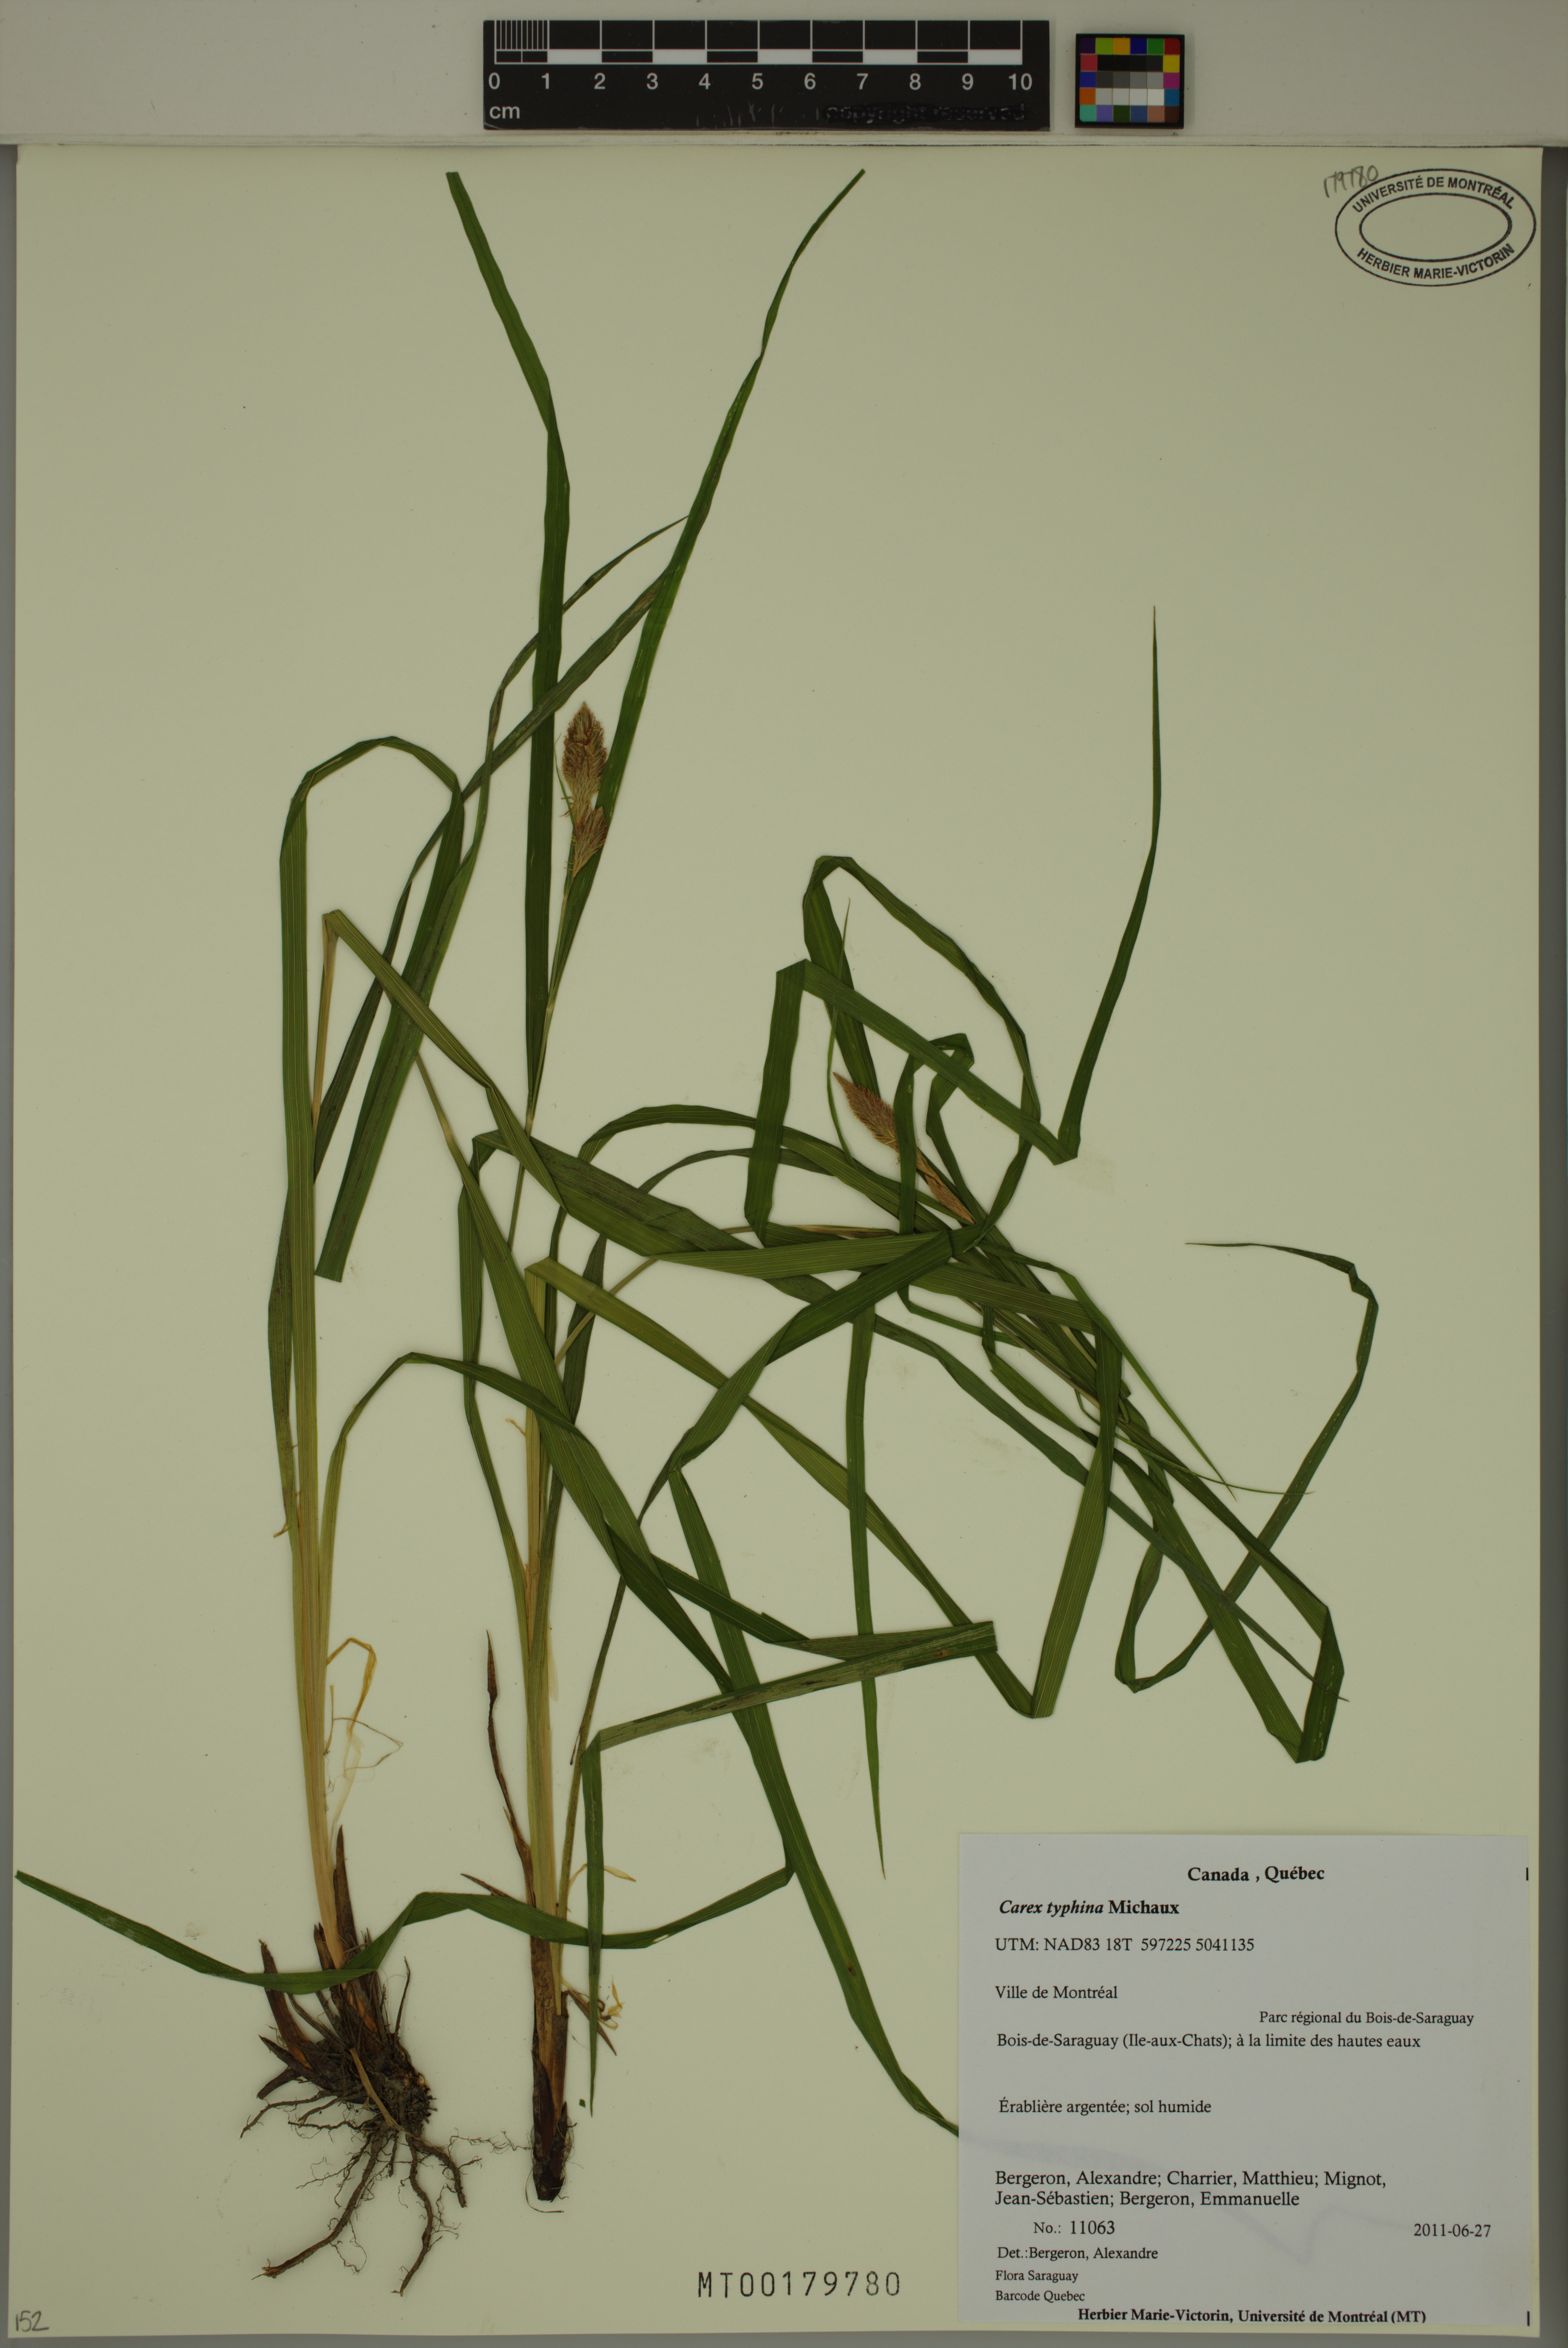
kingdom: Plantae
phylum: Tracheophyta
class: Liliopsida
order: Poales
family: Cyperaceae
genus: Carex
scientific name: Carex typhina
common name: Cattail sedge
